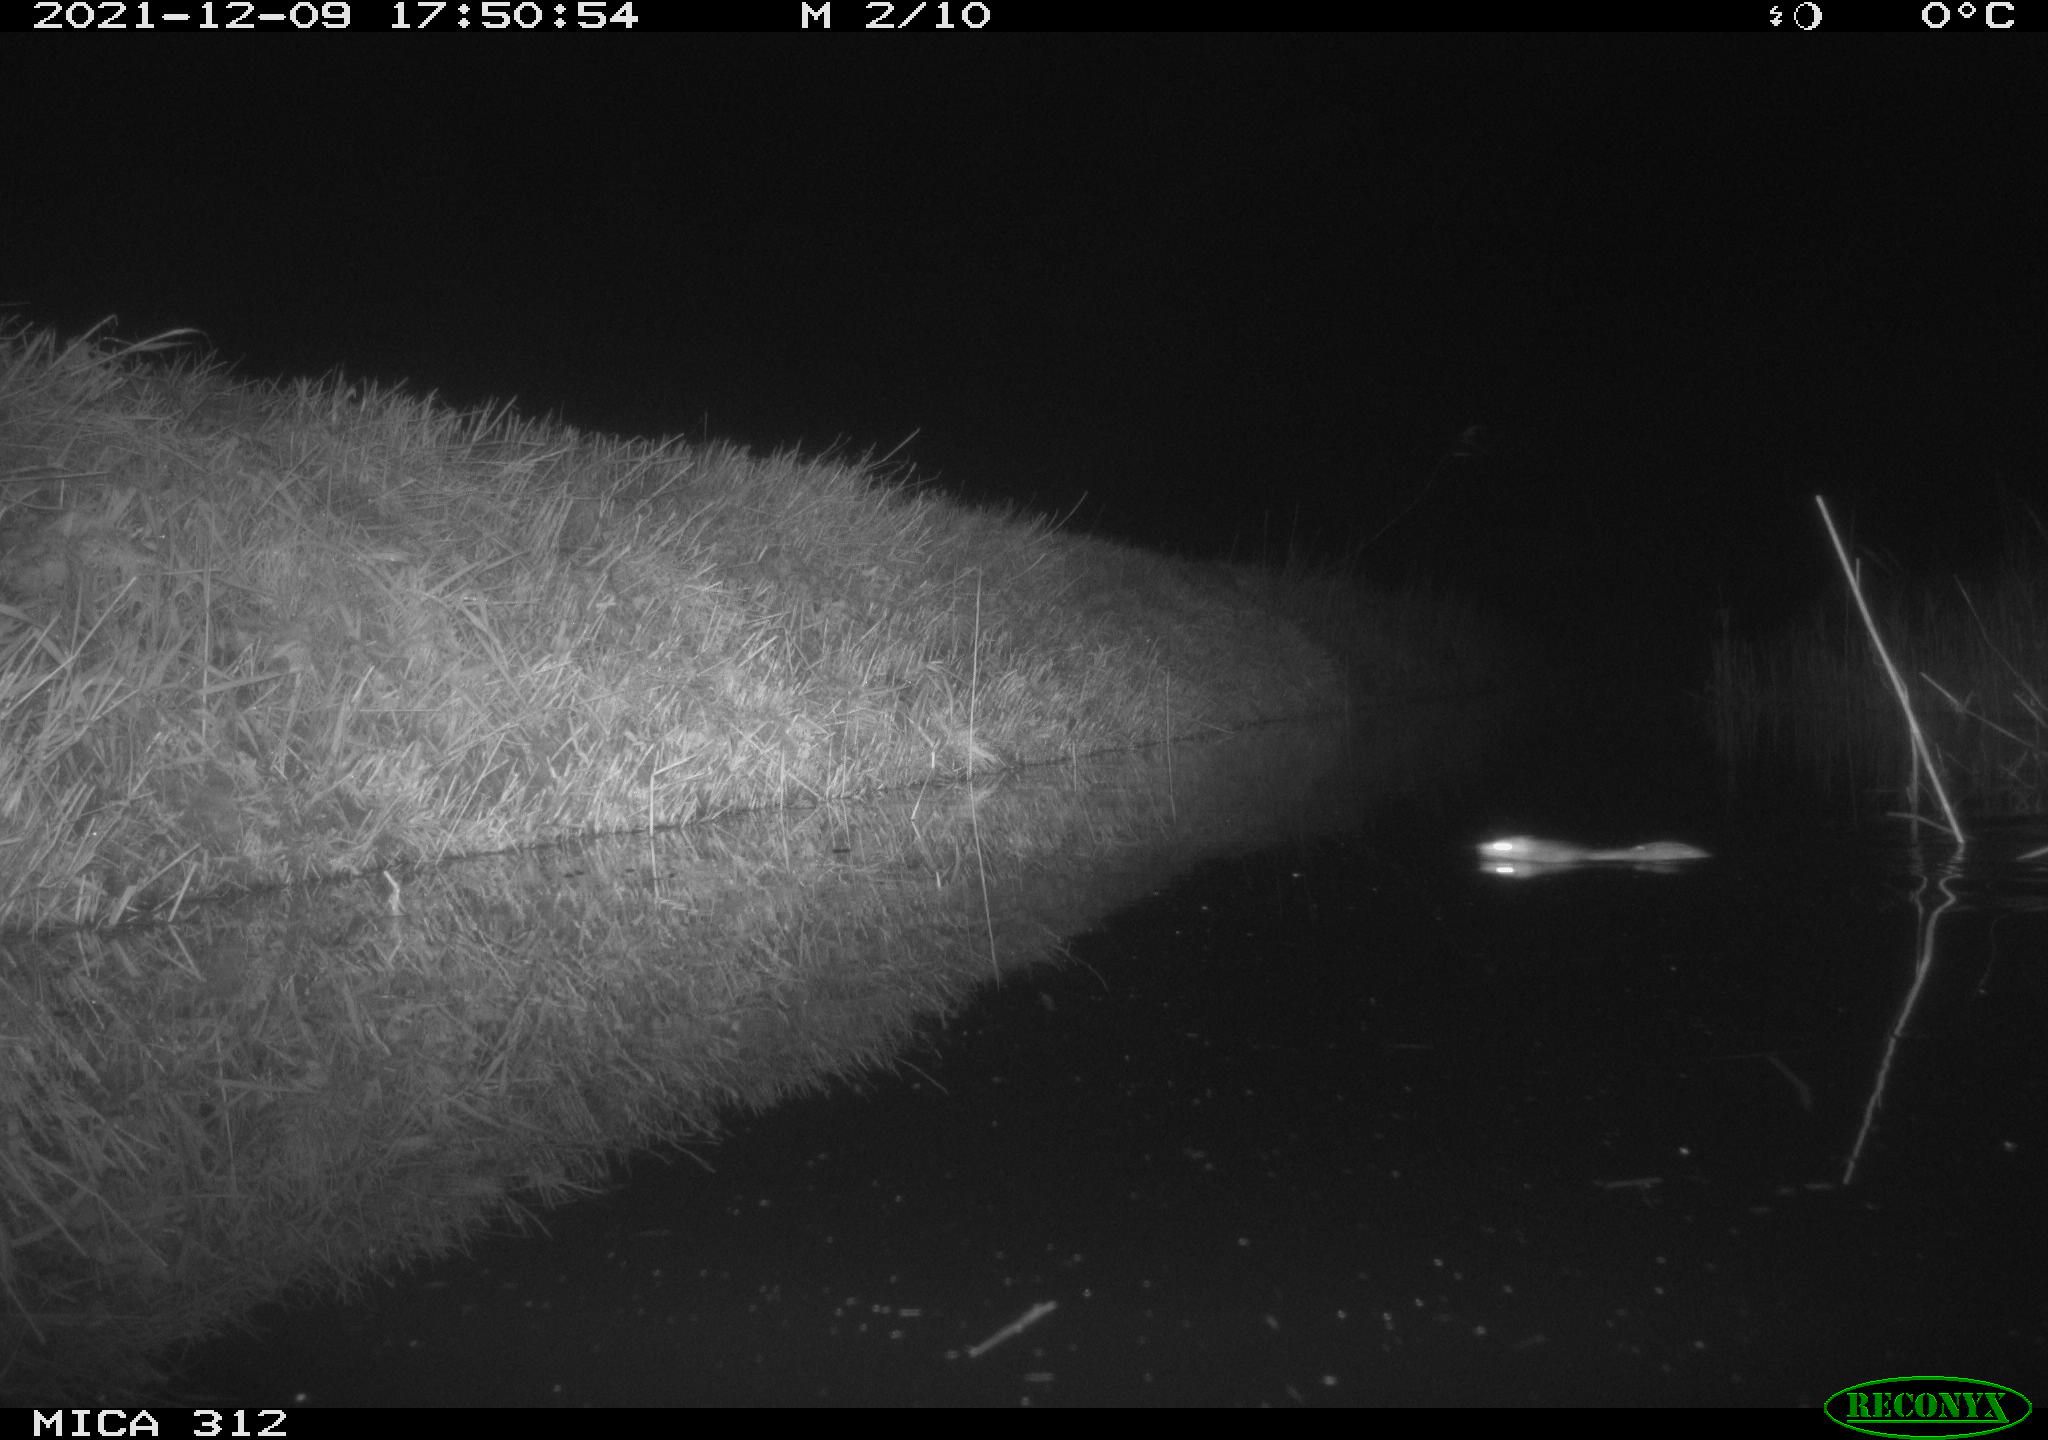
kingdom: Animalia
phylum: Chordata
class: Mammalia
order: Rodentia
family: Muridae
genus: Rattus
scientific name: Rattus norvegicus
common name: Brown rat
